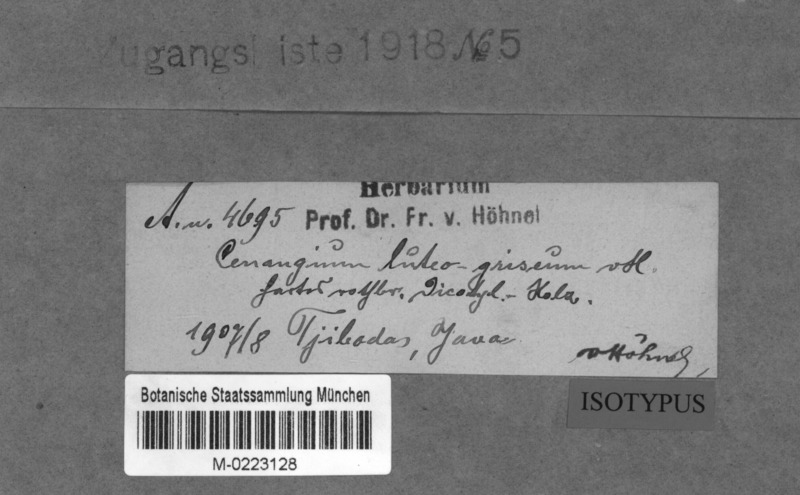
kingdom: Fungi
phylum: Ascomycota
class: Leotiomycetes
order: Helotiales
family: Cenangiaceae
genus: Cenangium
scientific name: Cenangium luteogriseum
